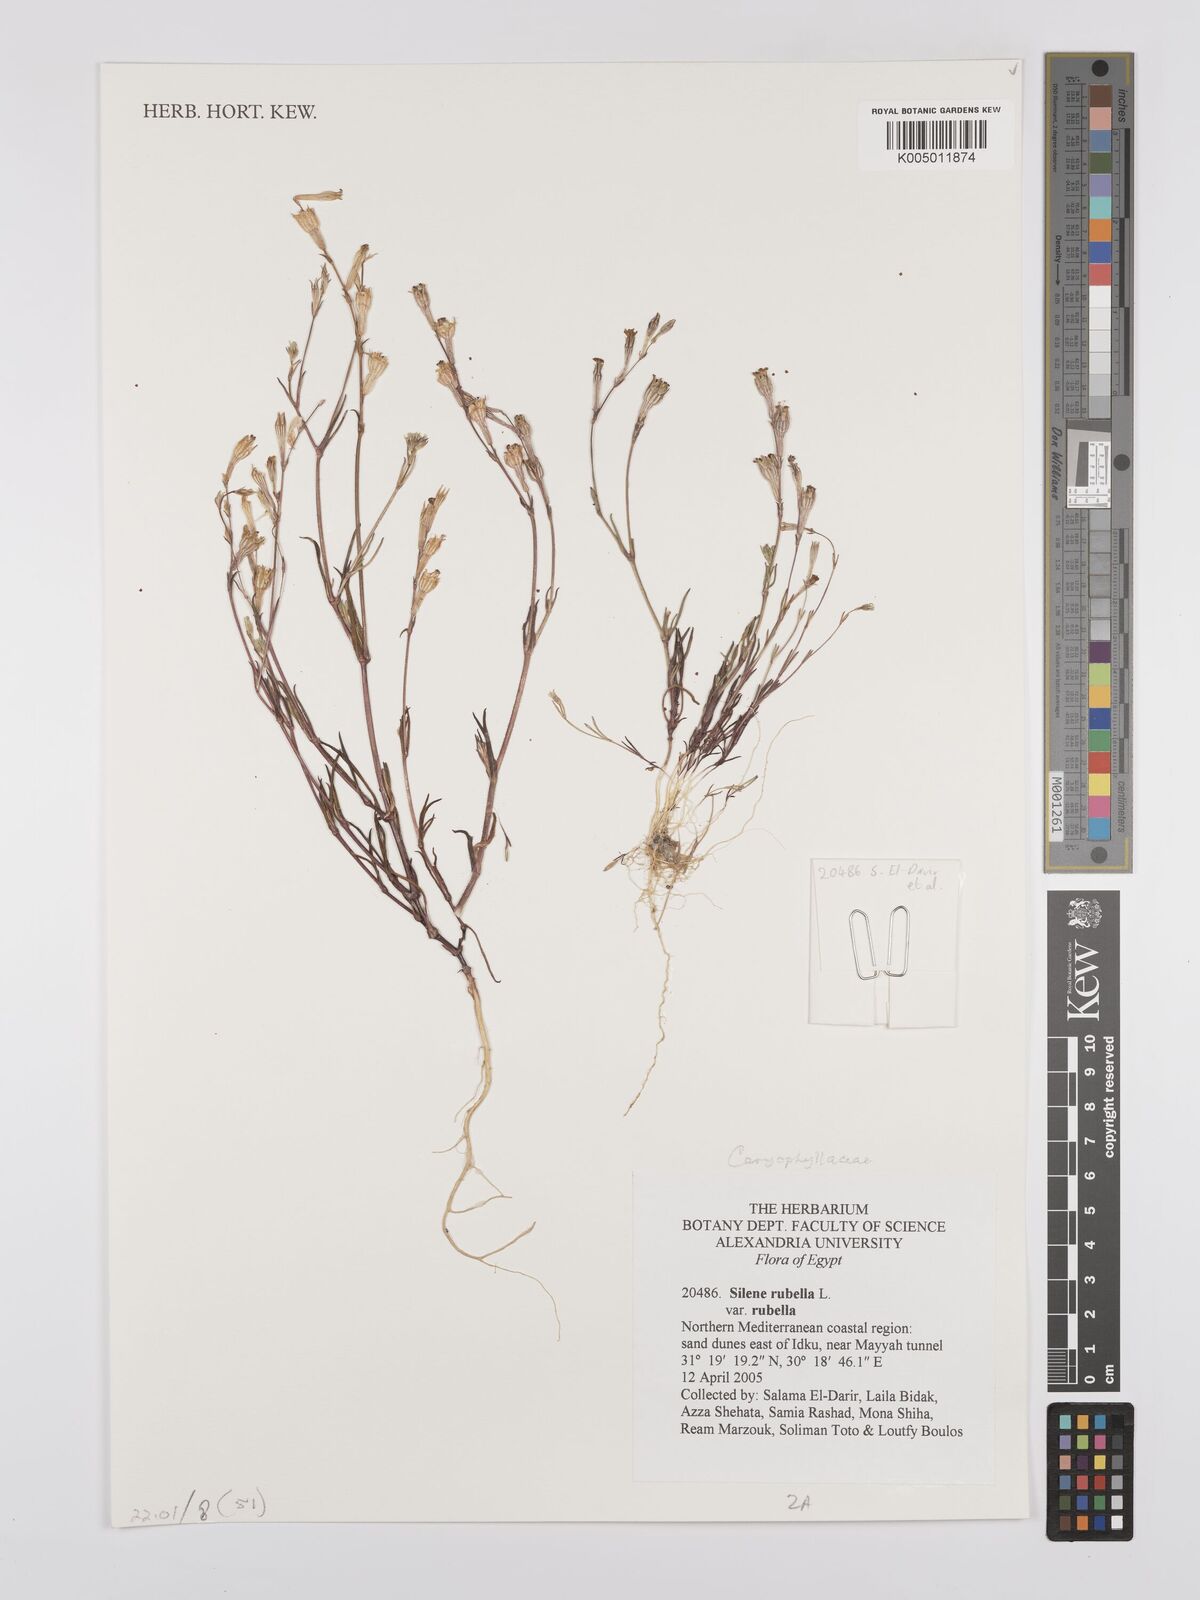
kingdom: Plantae
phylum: Tracheophyta
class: Magnoliopsida
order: Caryophyllales
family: Caryophyllaceae
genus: Silene
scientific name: Silene rubella
